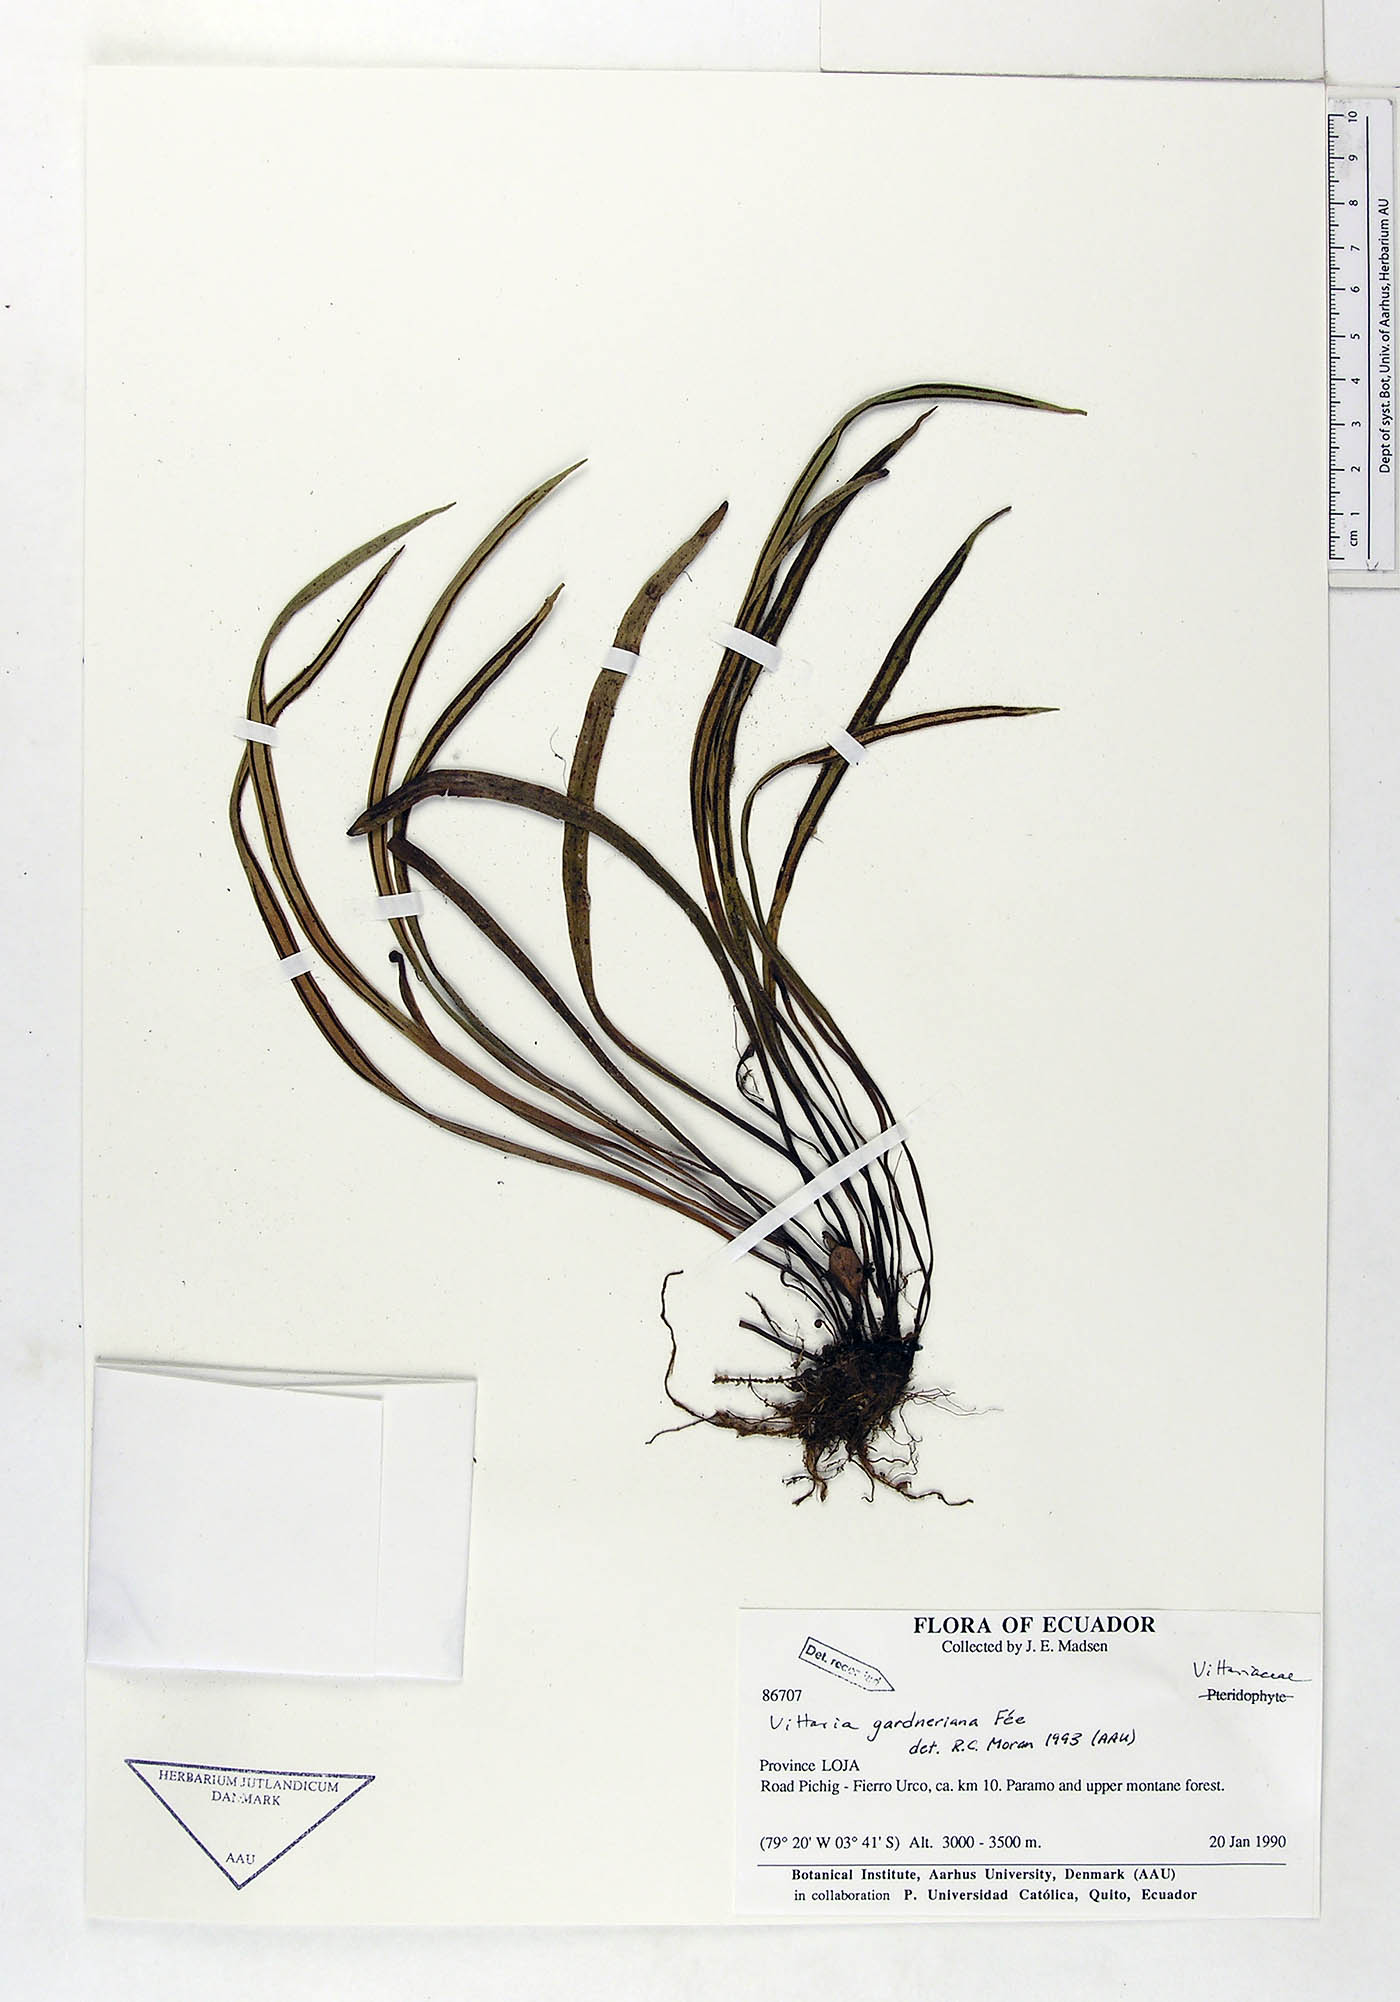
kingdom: Plantae
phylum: Tracheophyta
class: Polypodiopsida
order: Polypodiales
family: Pteridaceae
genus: Radiovittaria
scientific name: Radiovittaria gardneriana
